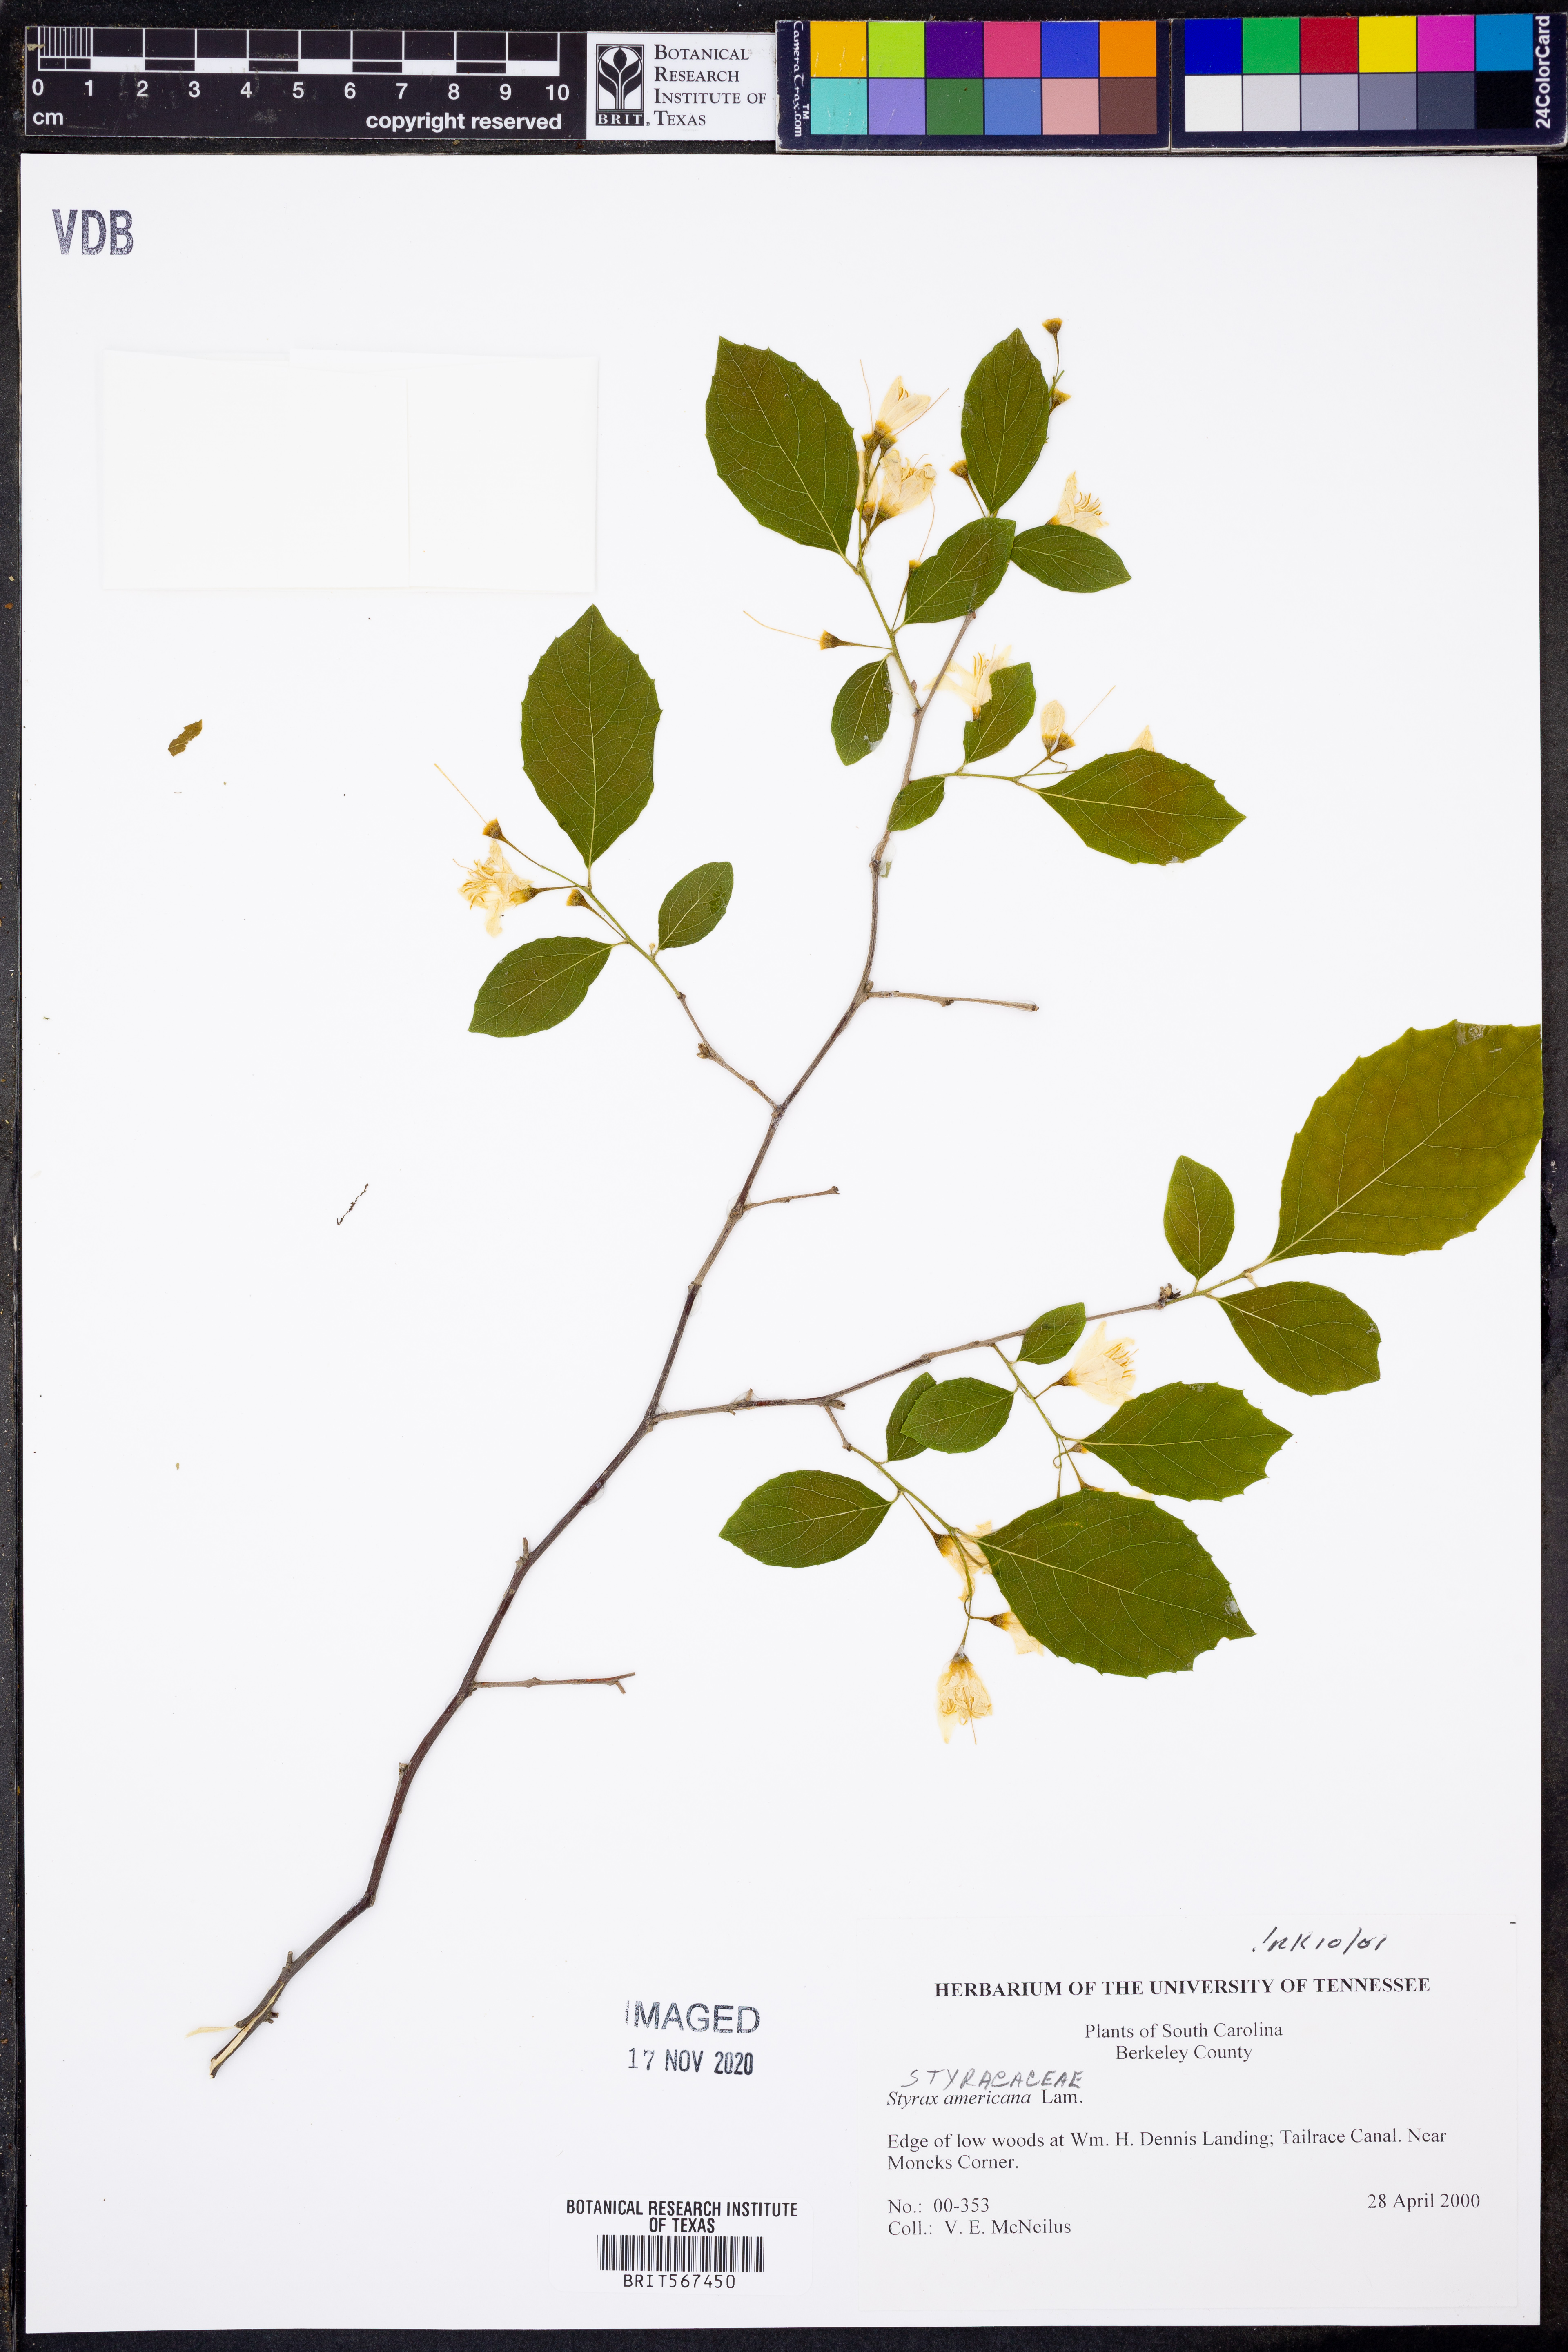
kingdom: Plantae
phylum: Tracheophyta
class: Magnoliopsida
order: Ericales
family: Styracaceae
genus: Styrax
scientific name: Styrax americanus
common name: American snowbell
